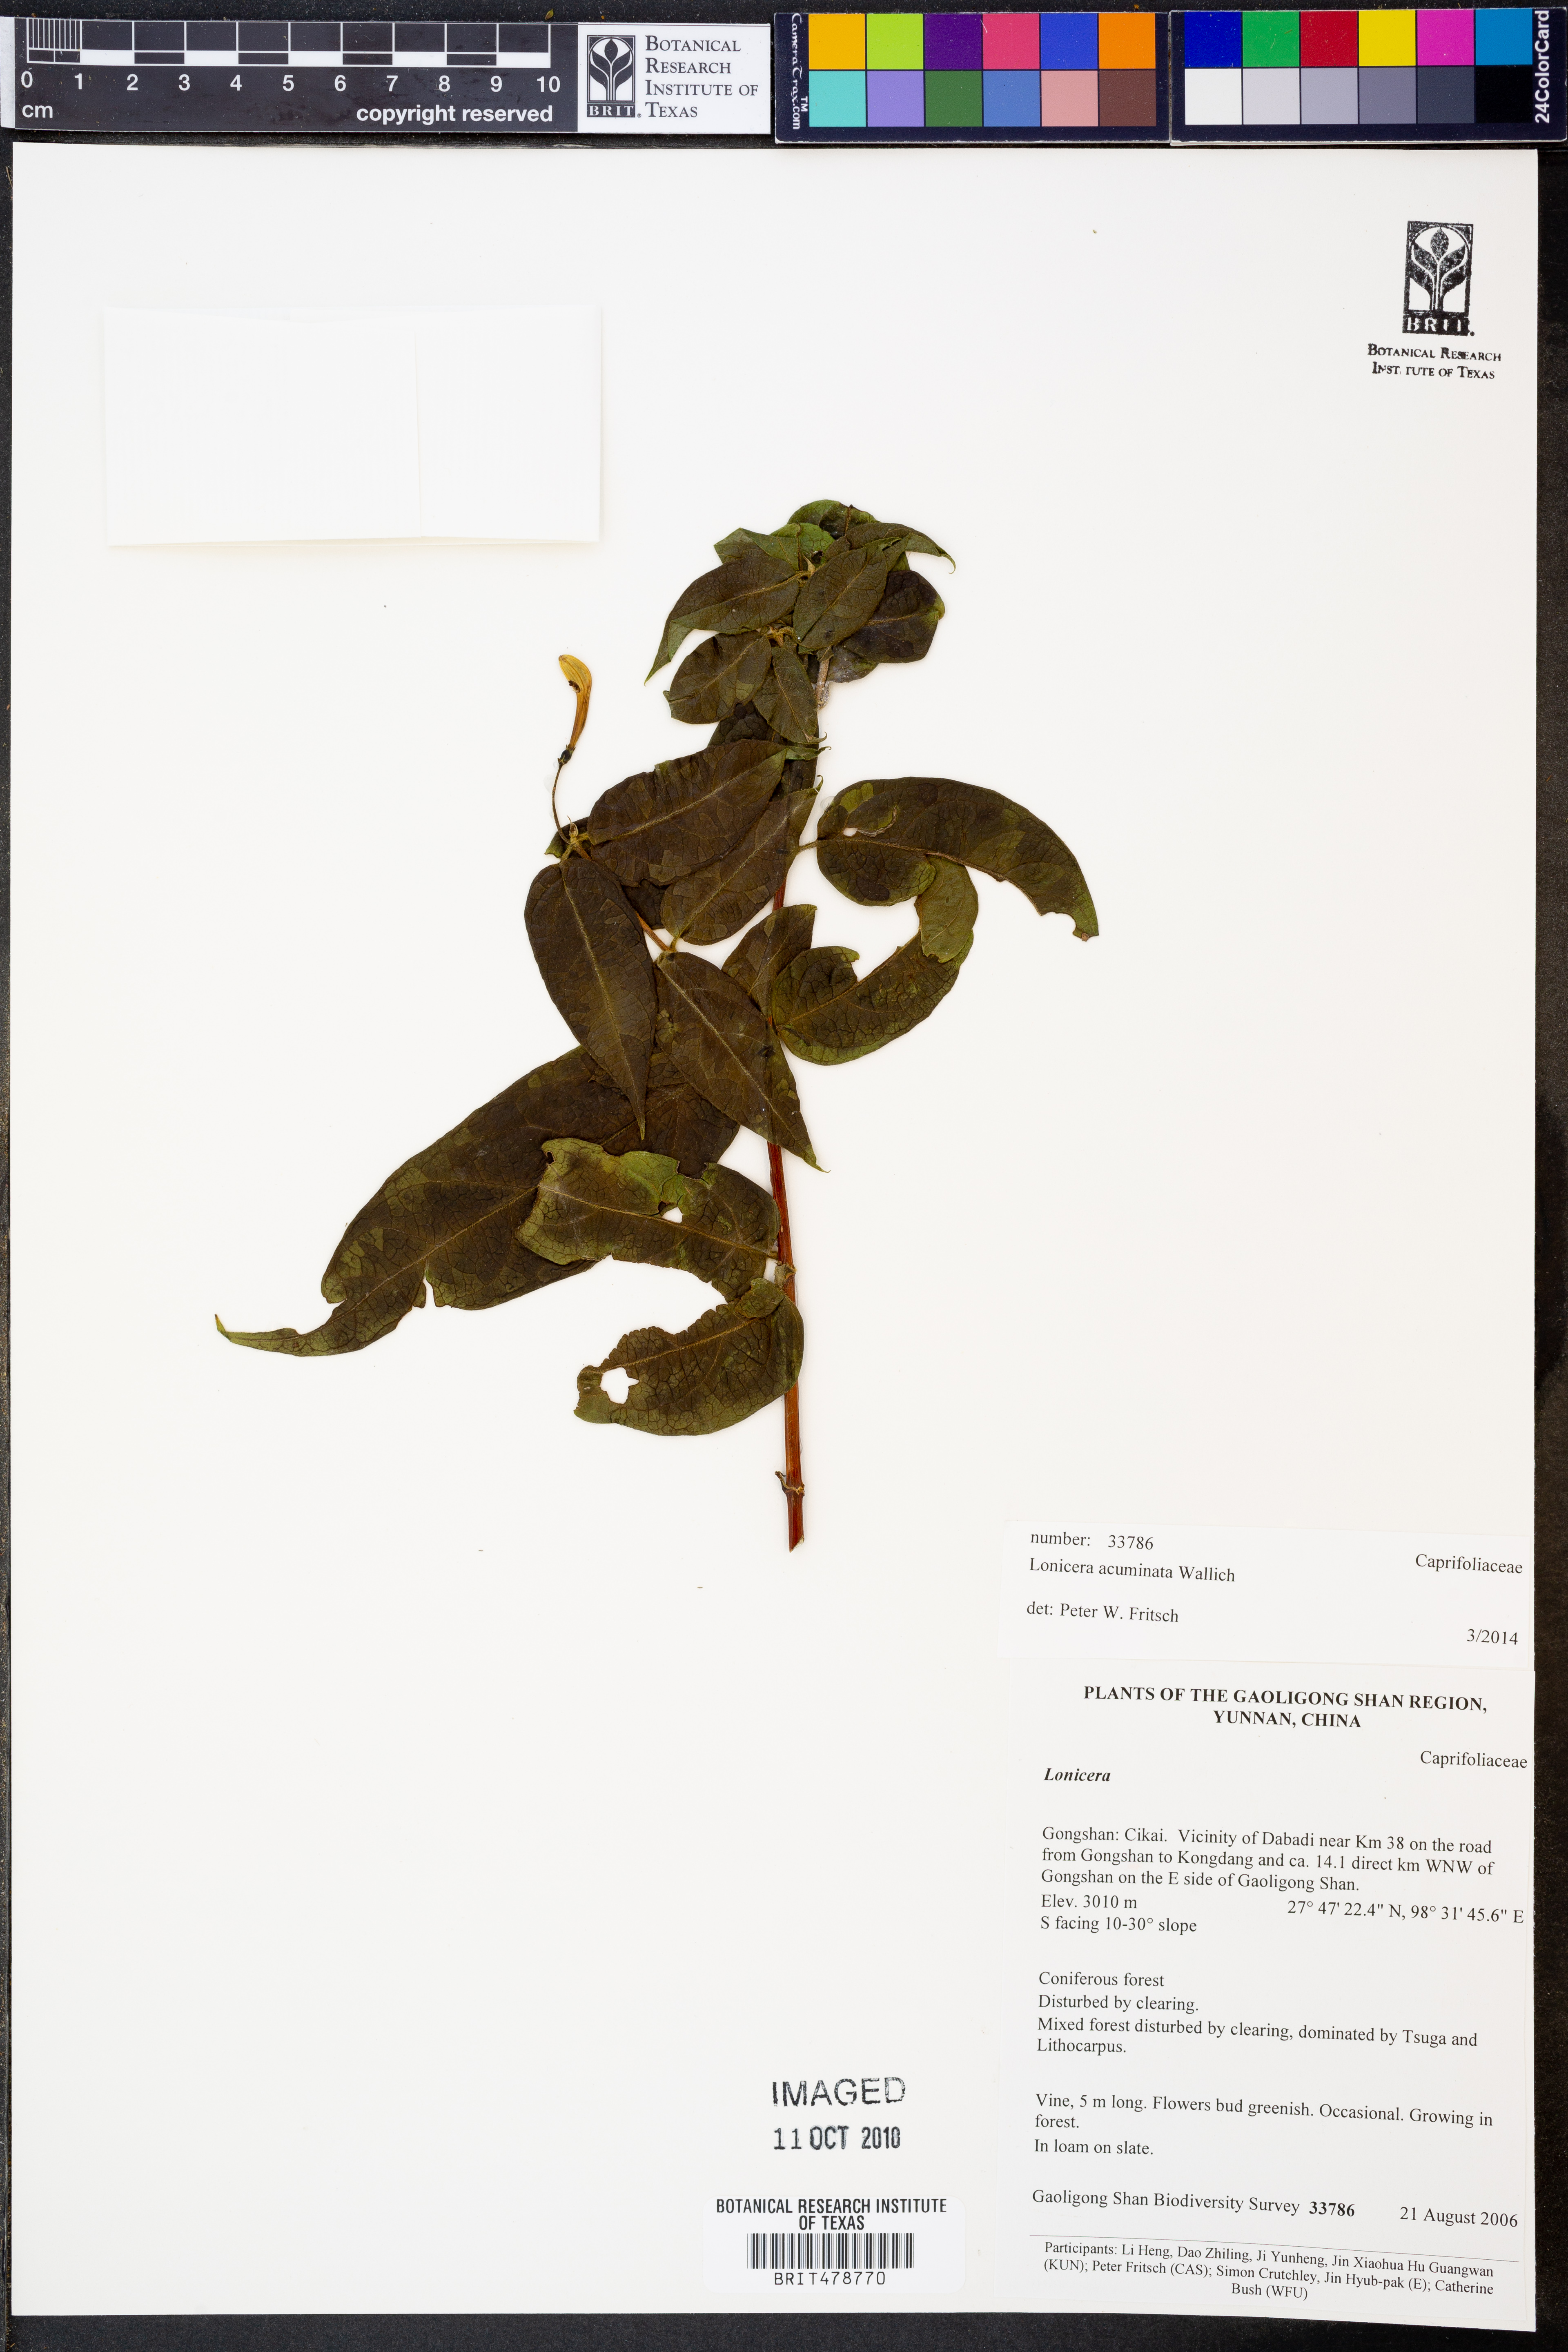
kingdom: Plantae
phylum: Tracheophyta
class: Magnoliopsida
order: Dipsacales
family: Caprifoliaceae
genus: Lonicera
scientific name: Lonicera acuminata
